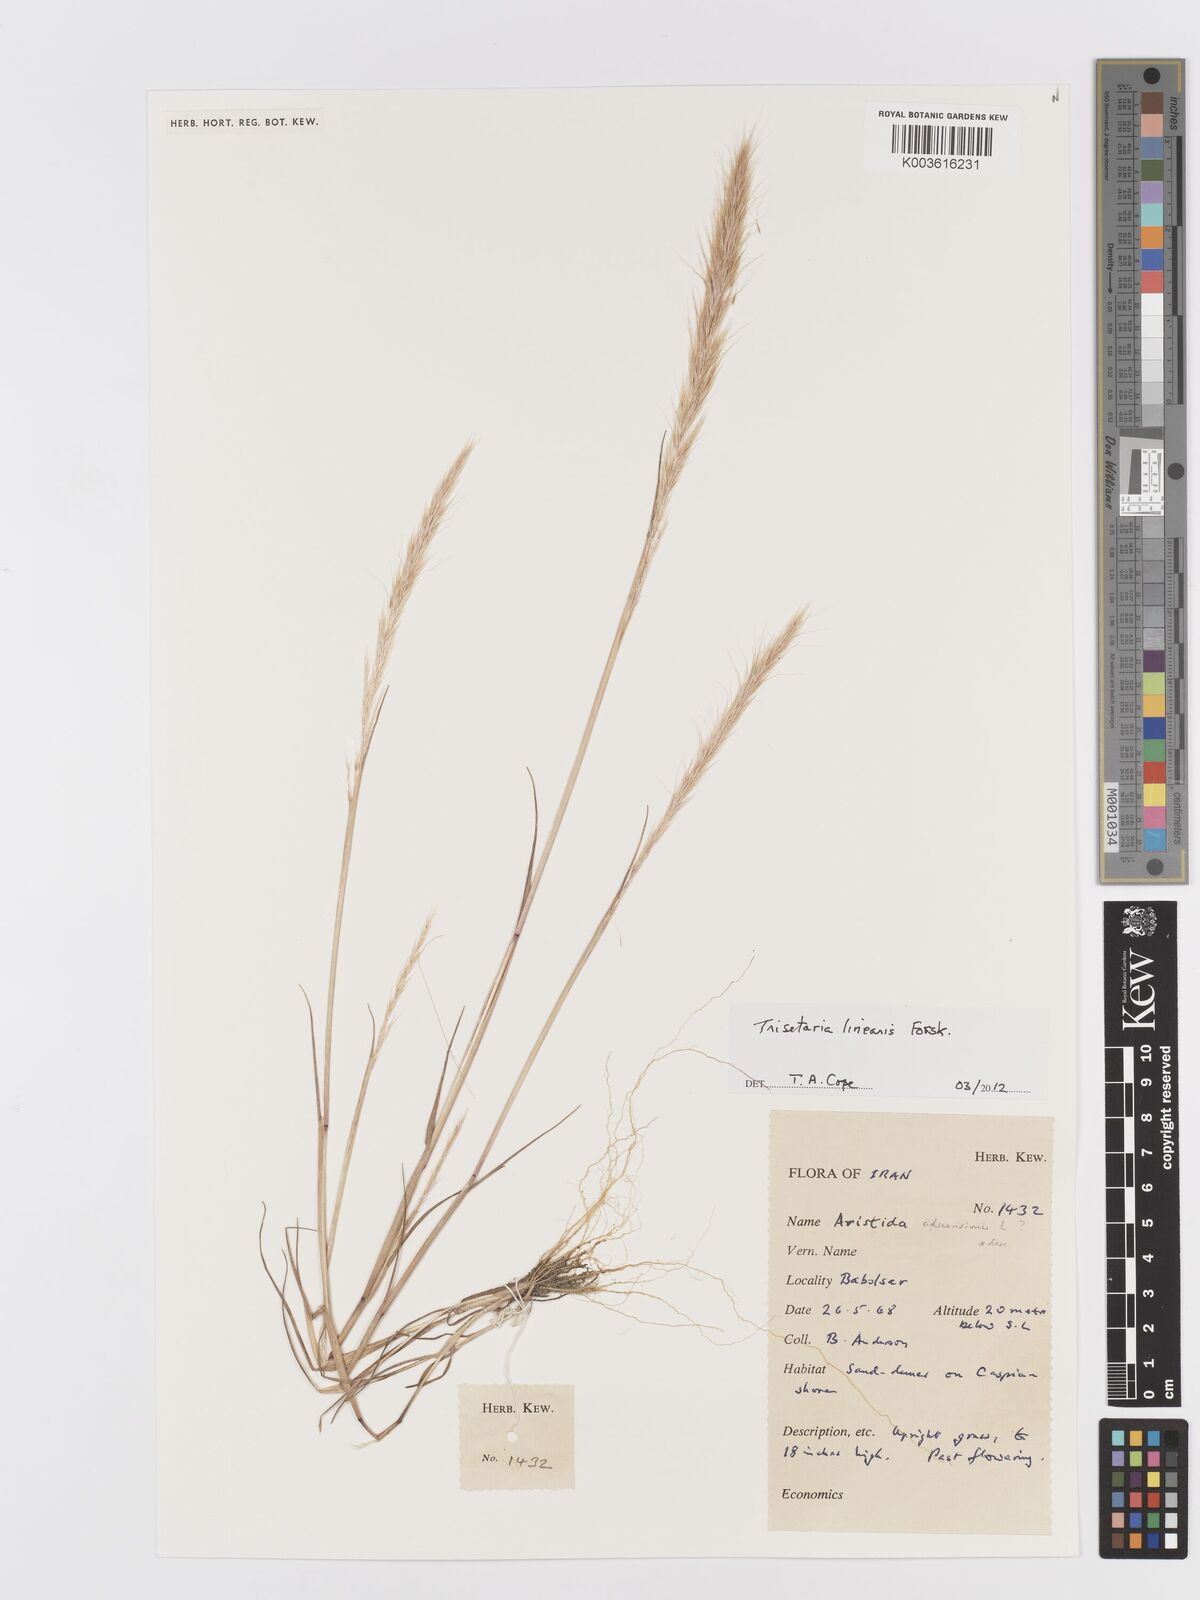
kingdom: Plantae
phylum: Tracheophyta
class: Liliopsida
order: Poales
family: Poaceae
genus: Trisetaria
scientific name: Trisetaria linearis
